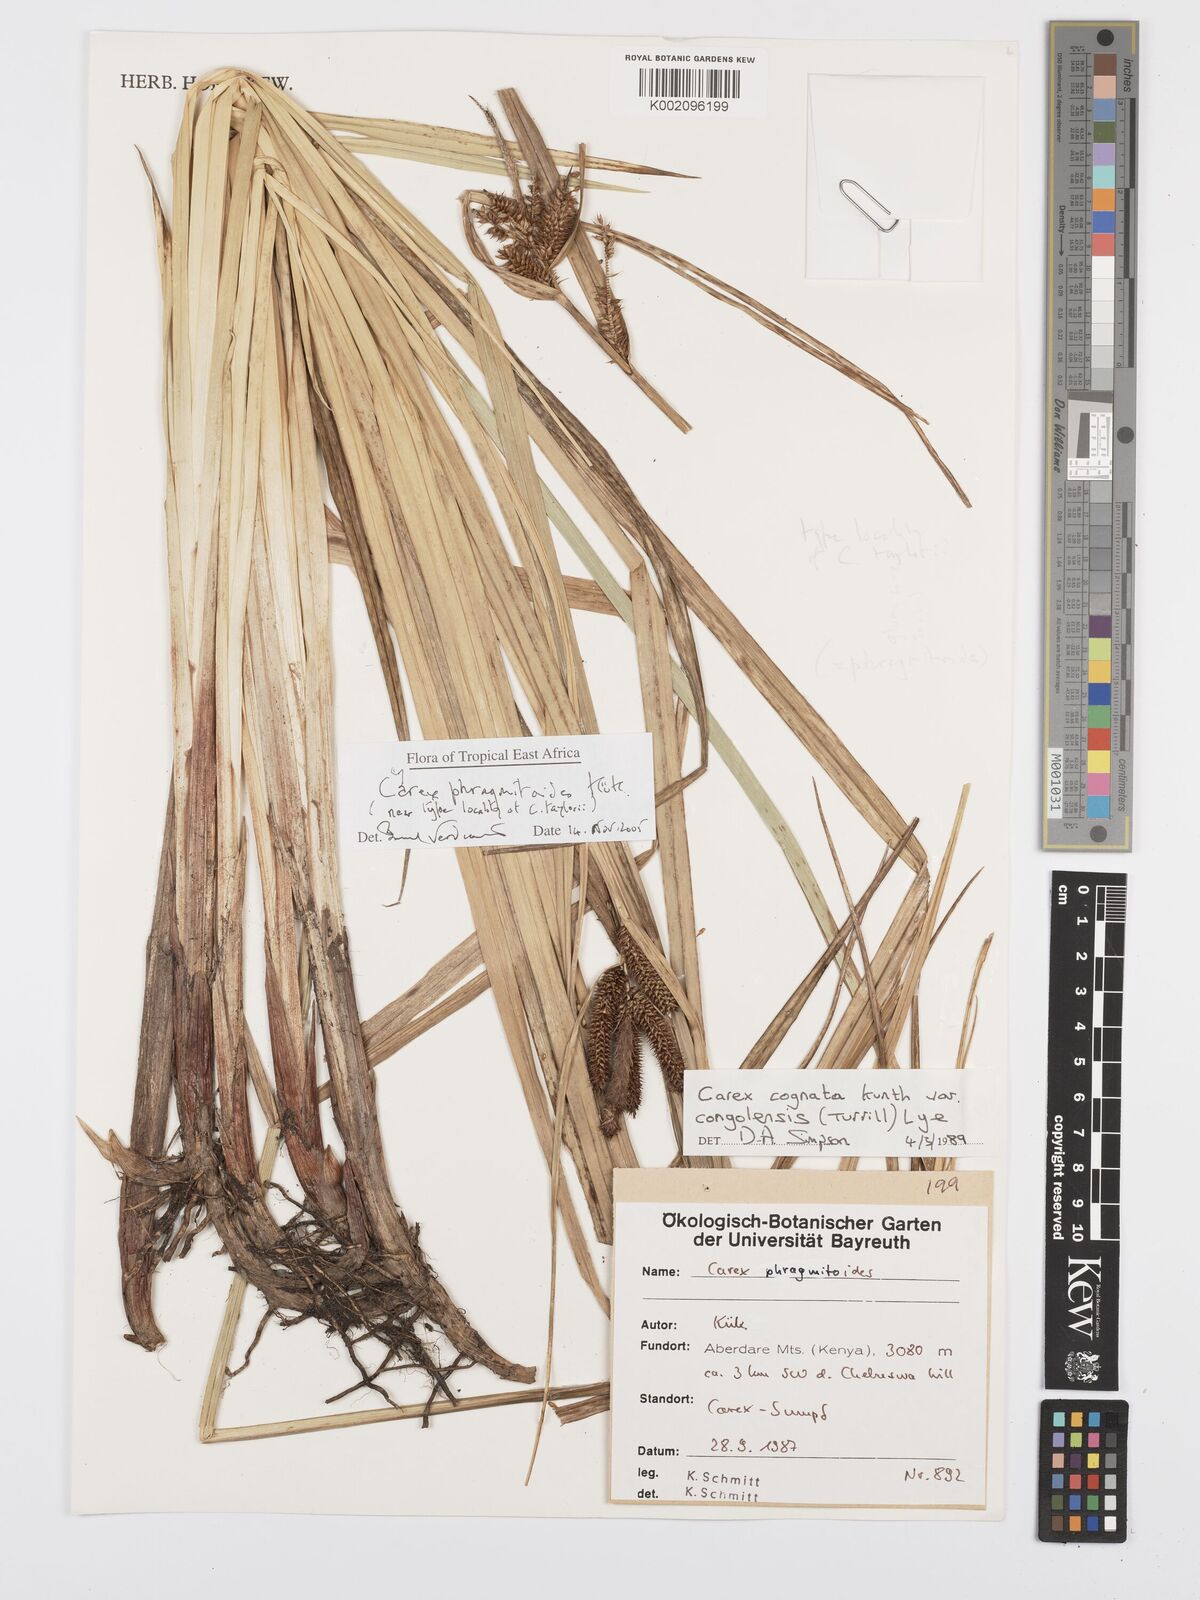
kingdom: Plantae
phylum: Tracheophyta
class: Liliopsida
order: Poales
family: Cyperaceae
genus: Carex
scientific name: Carex phragmitoides
